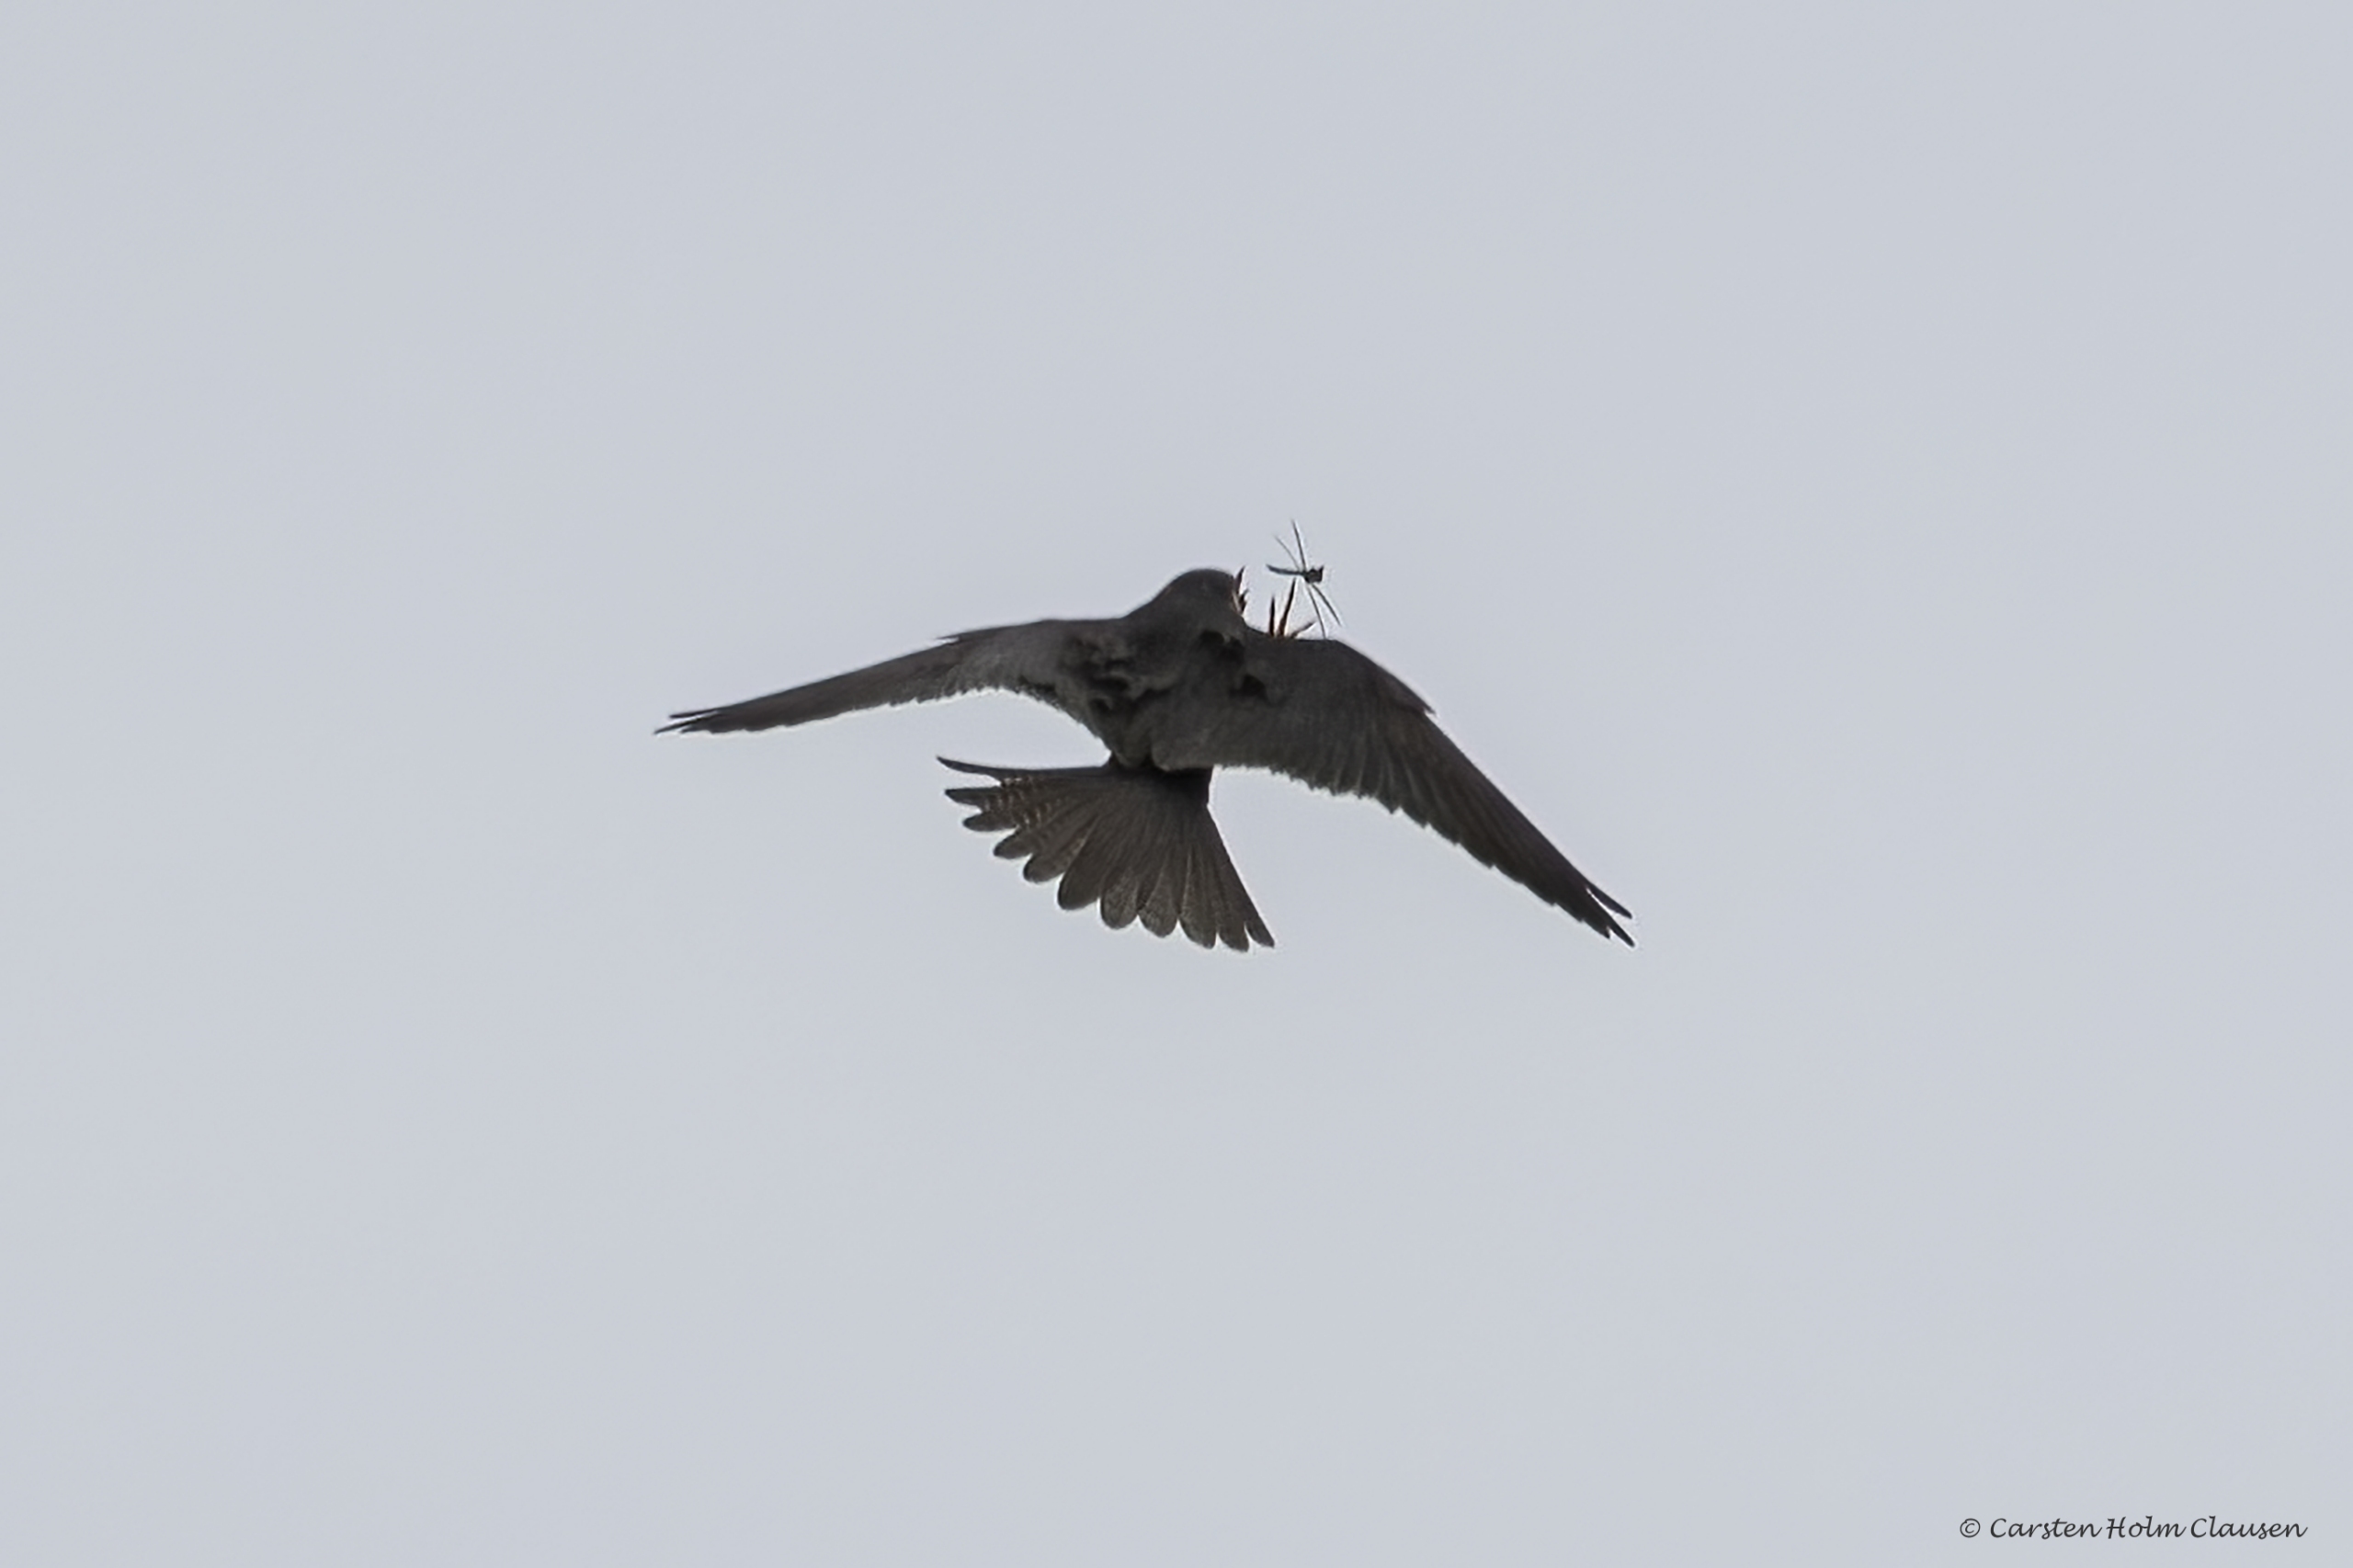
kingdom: Animalia
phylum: Chordata
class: Aves
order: Falconiformes
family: Falconidae
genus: Falco
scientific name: Falco subbuteo
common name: Lærkefalk
